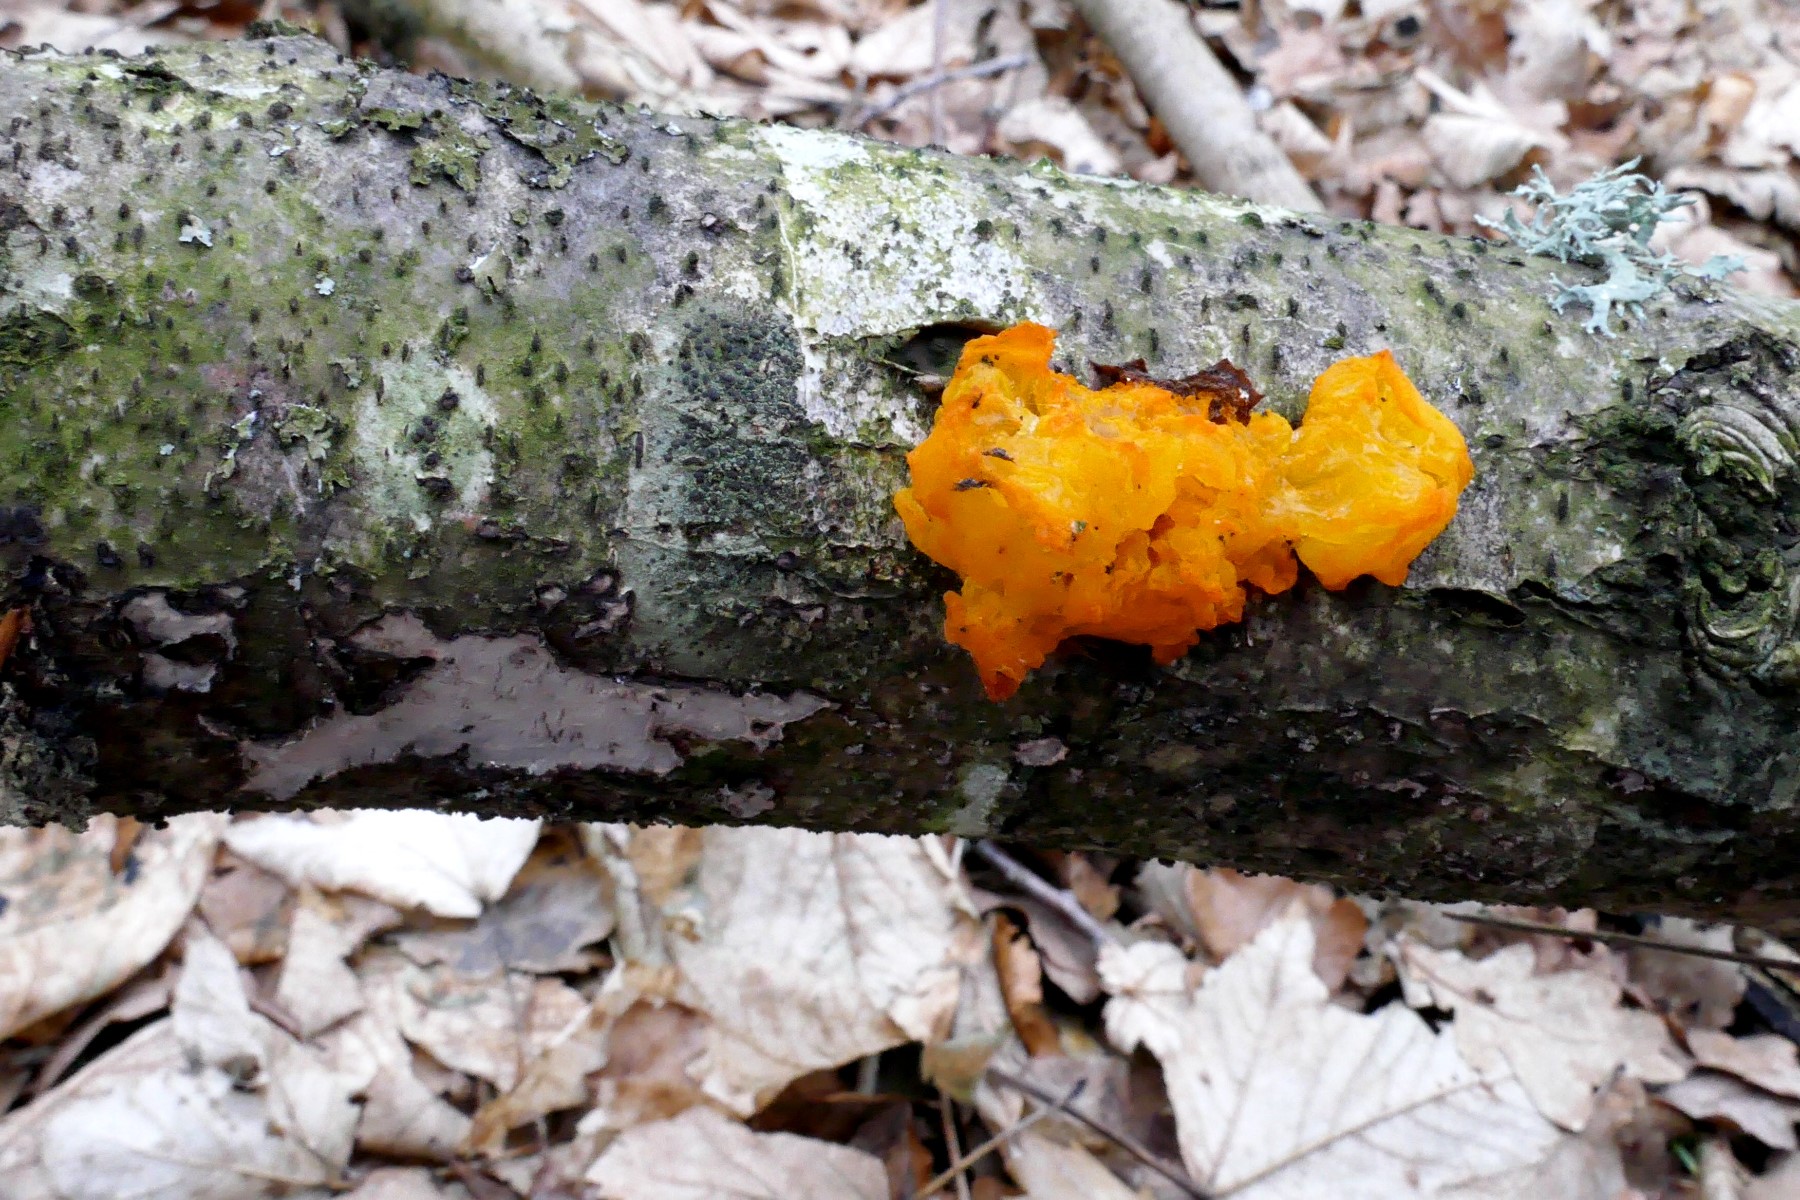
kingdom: Fungi
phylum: Basidiomycota
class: Tremellomycetes
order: Tremellales
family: Tremellaceae
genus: Tremella
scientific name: Tremella mesenterica
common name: gul bævresvamp
